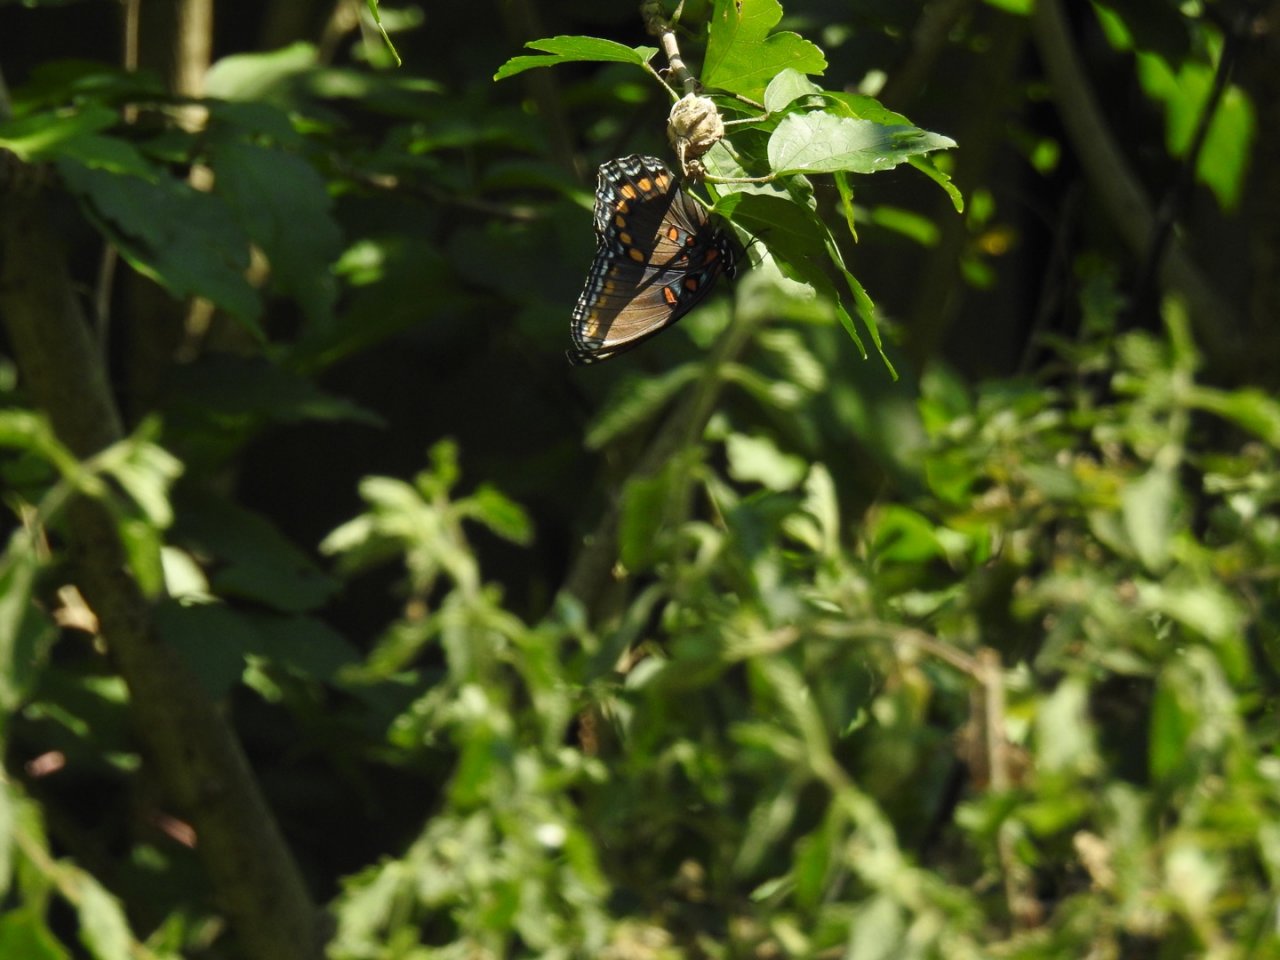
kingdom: Animalia
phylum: Arthropoda
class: Insecta
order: Lepidoptera
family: Nymphalidae
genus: Vanessa
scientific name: Vanessa atalanta
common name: Red Admiral
